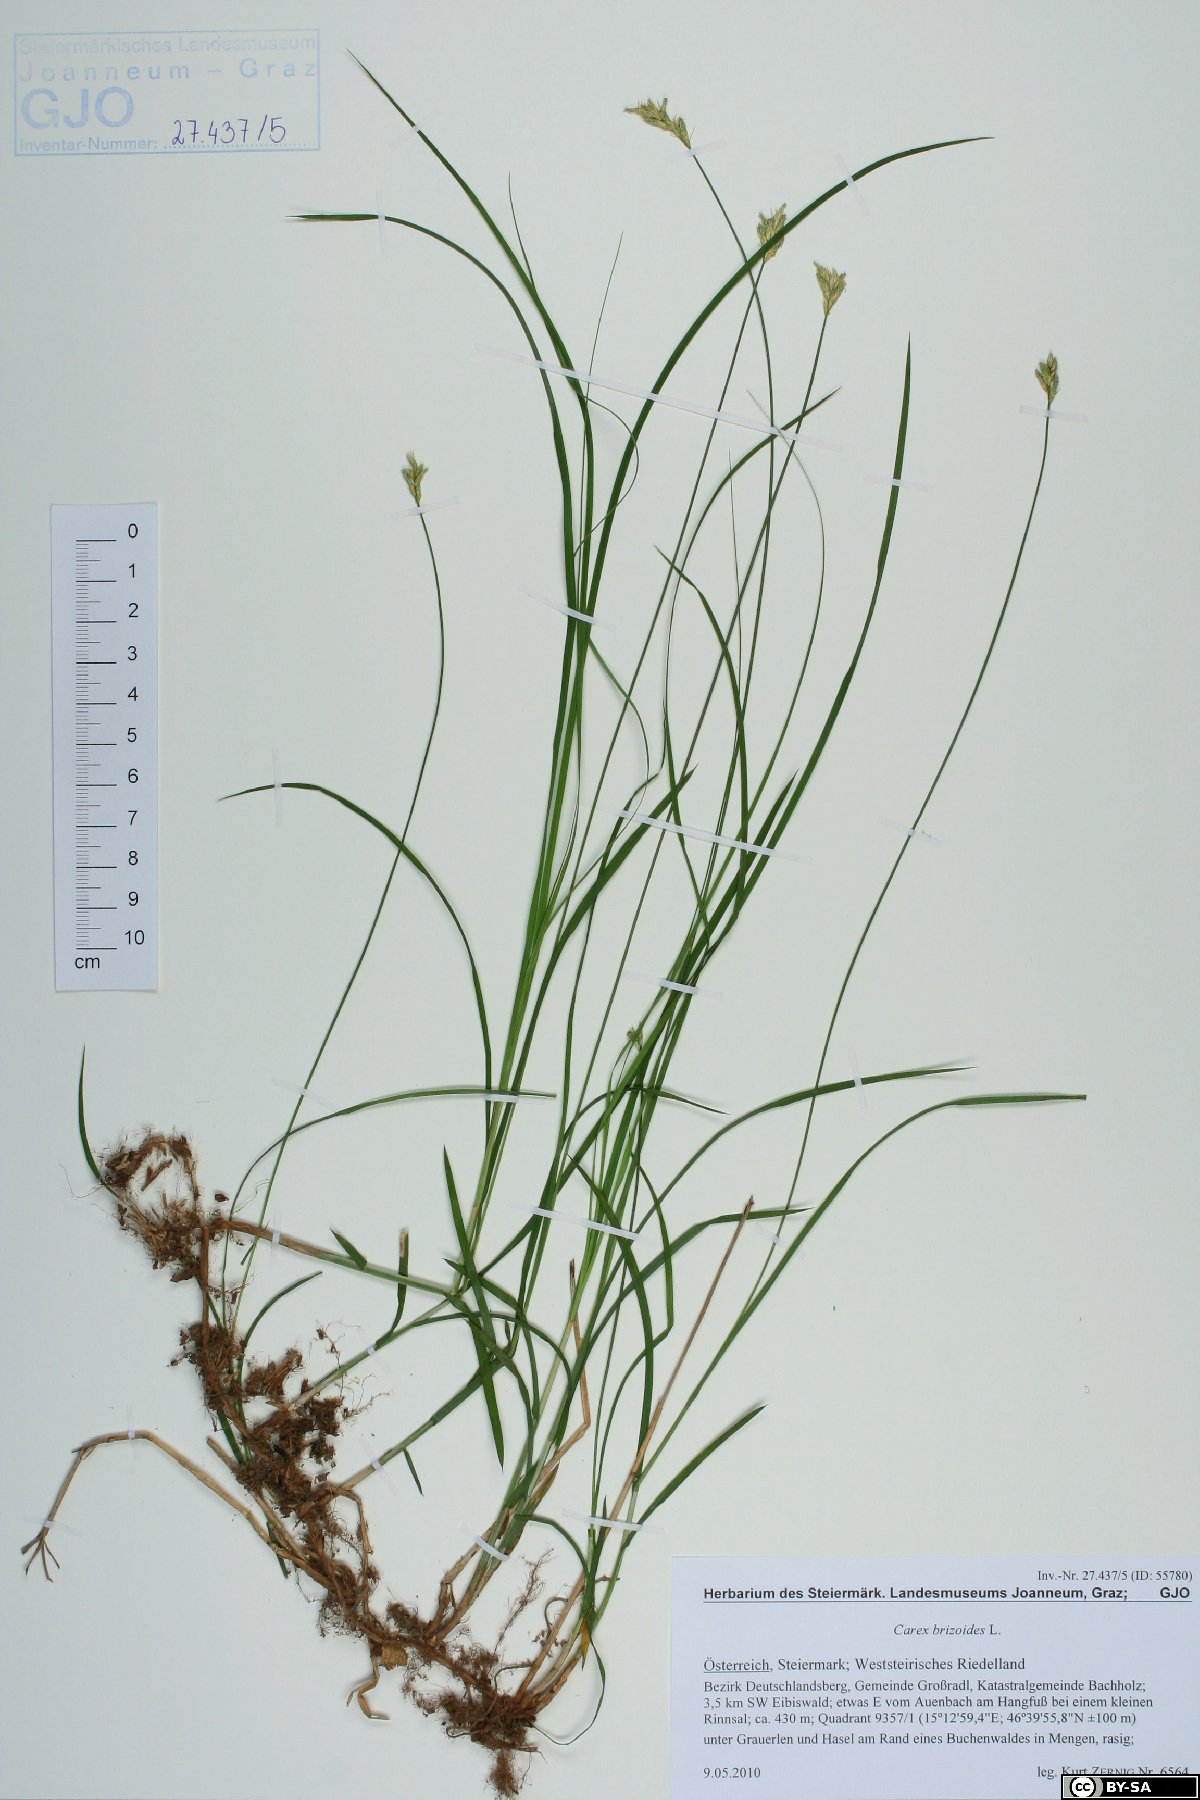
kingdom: Plantae
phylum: Tracheophyta
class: Liliopsida
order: Poales
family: Cyperaceae
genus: Carex
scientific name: Carex brizoides
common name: Quaking-grass sedge
